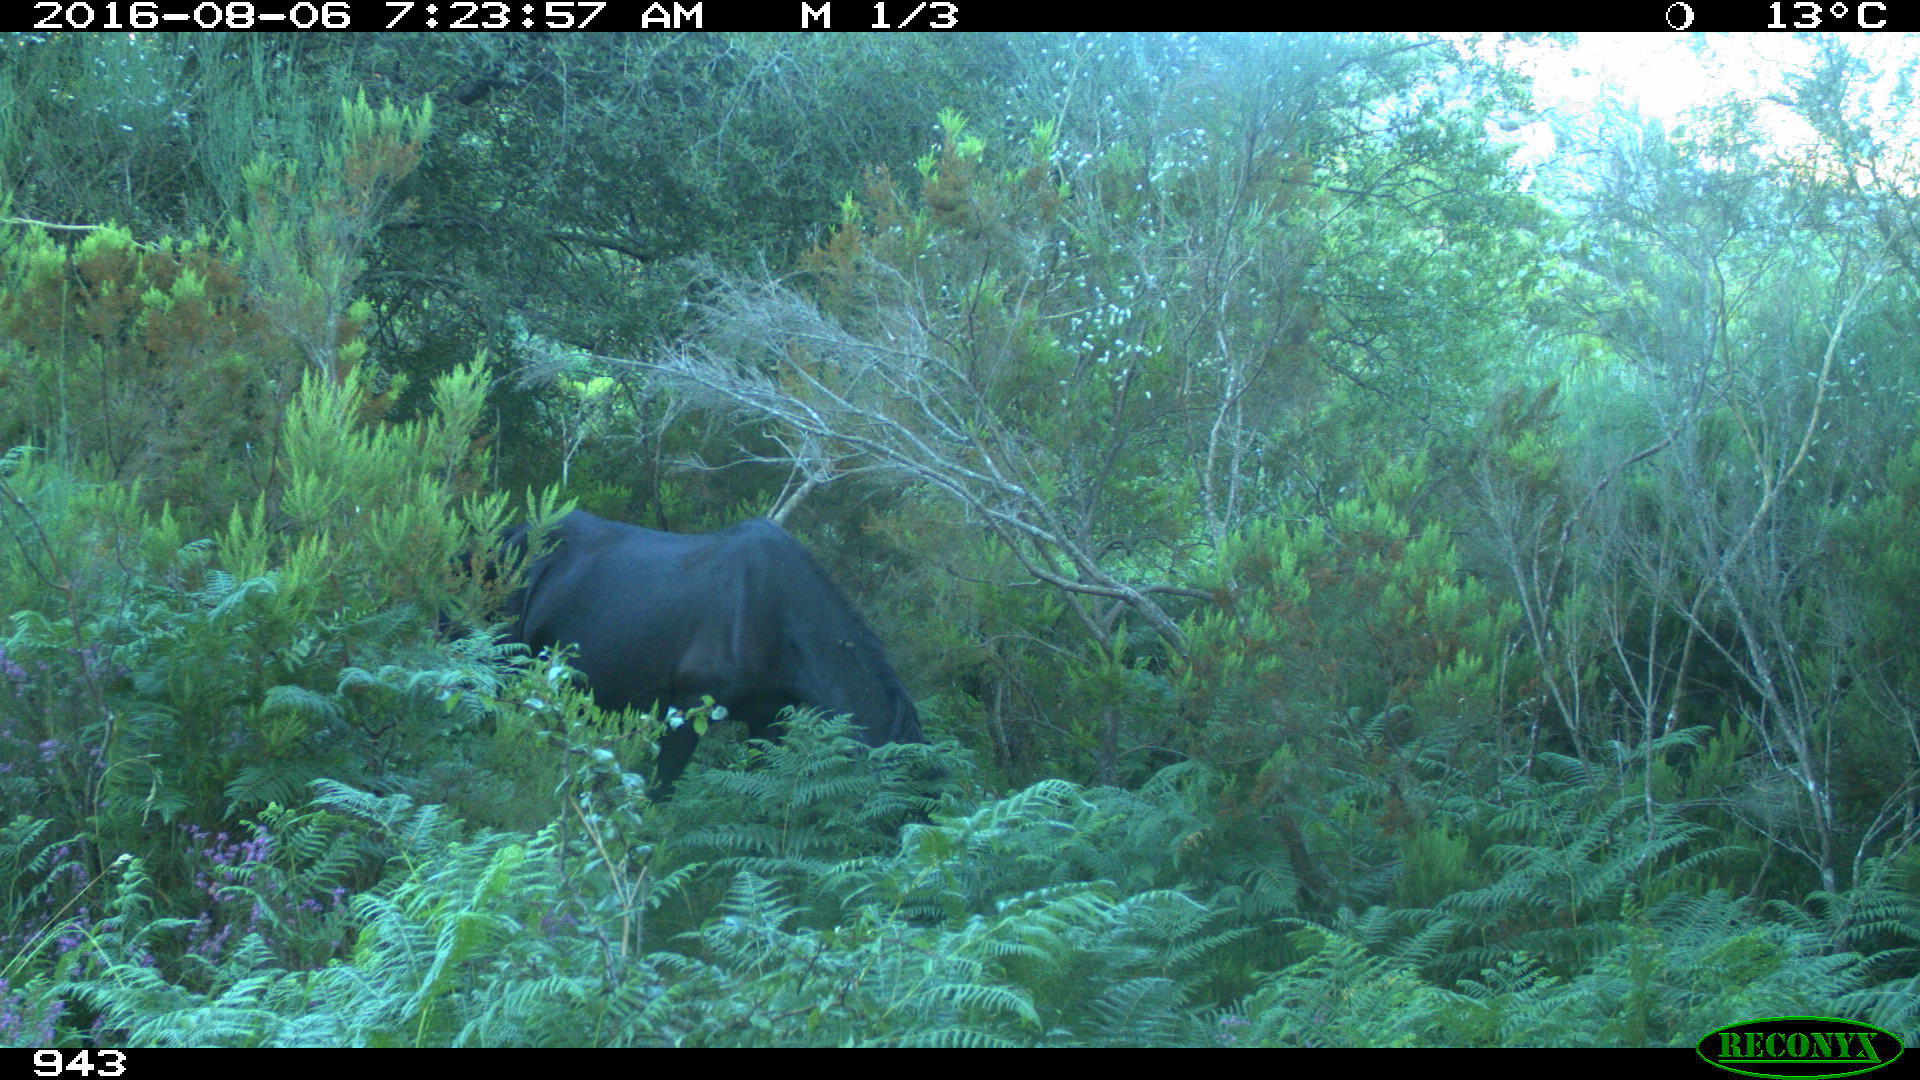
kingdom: Animalia
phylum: Chordata
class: Mammalia
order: Perissodactyla
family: Equidae
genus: Equus
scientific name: Equus caballus
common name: Horse
